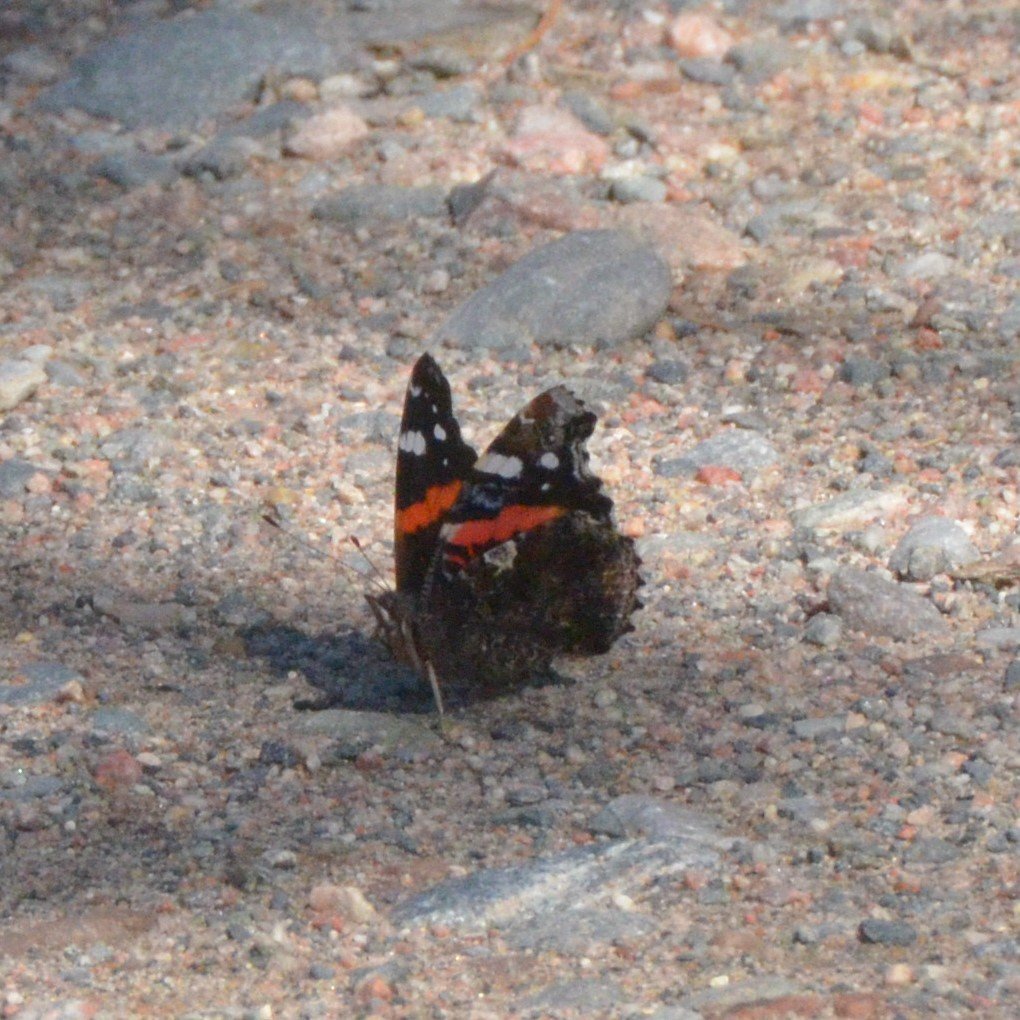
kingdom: Animalia
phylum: Arthropoda
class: Insecta
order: Lepidoptera
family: Nymphalidae
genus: Vanessa
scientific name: Vanessa atalanta
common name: Red Admiral
